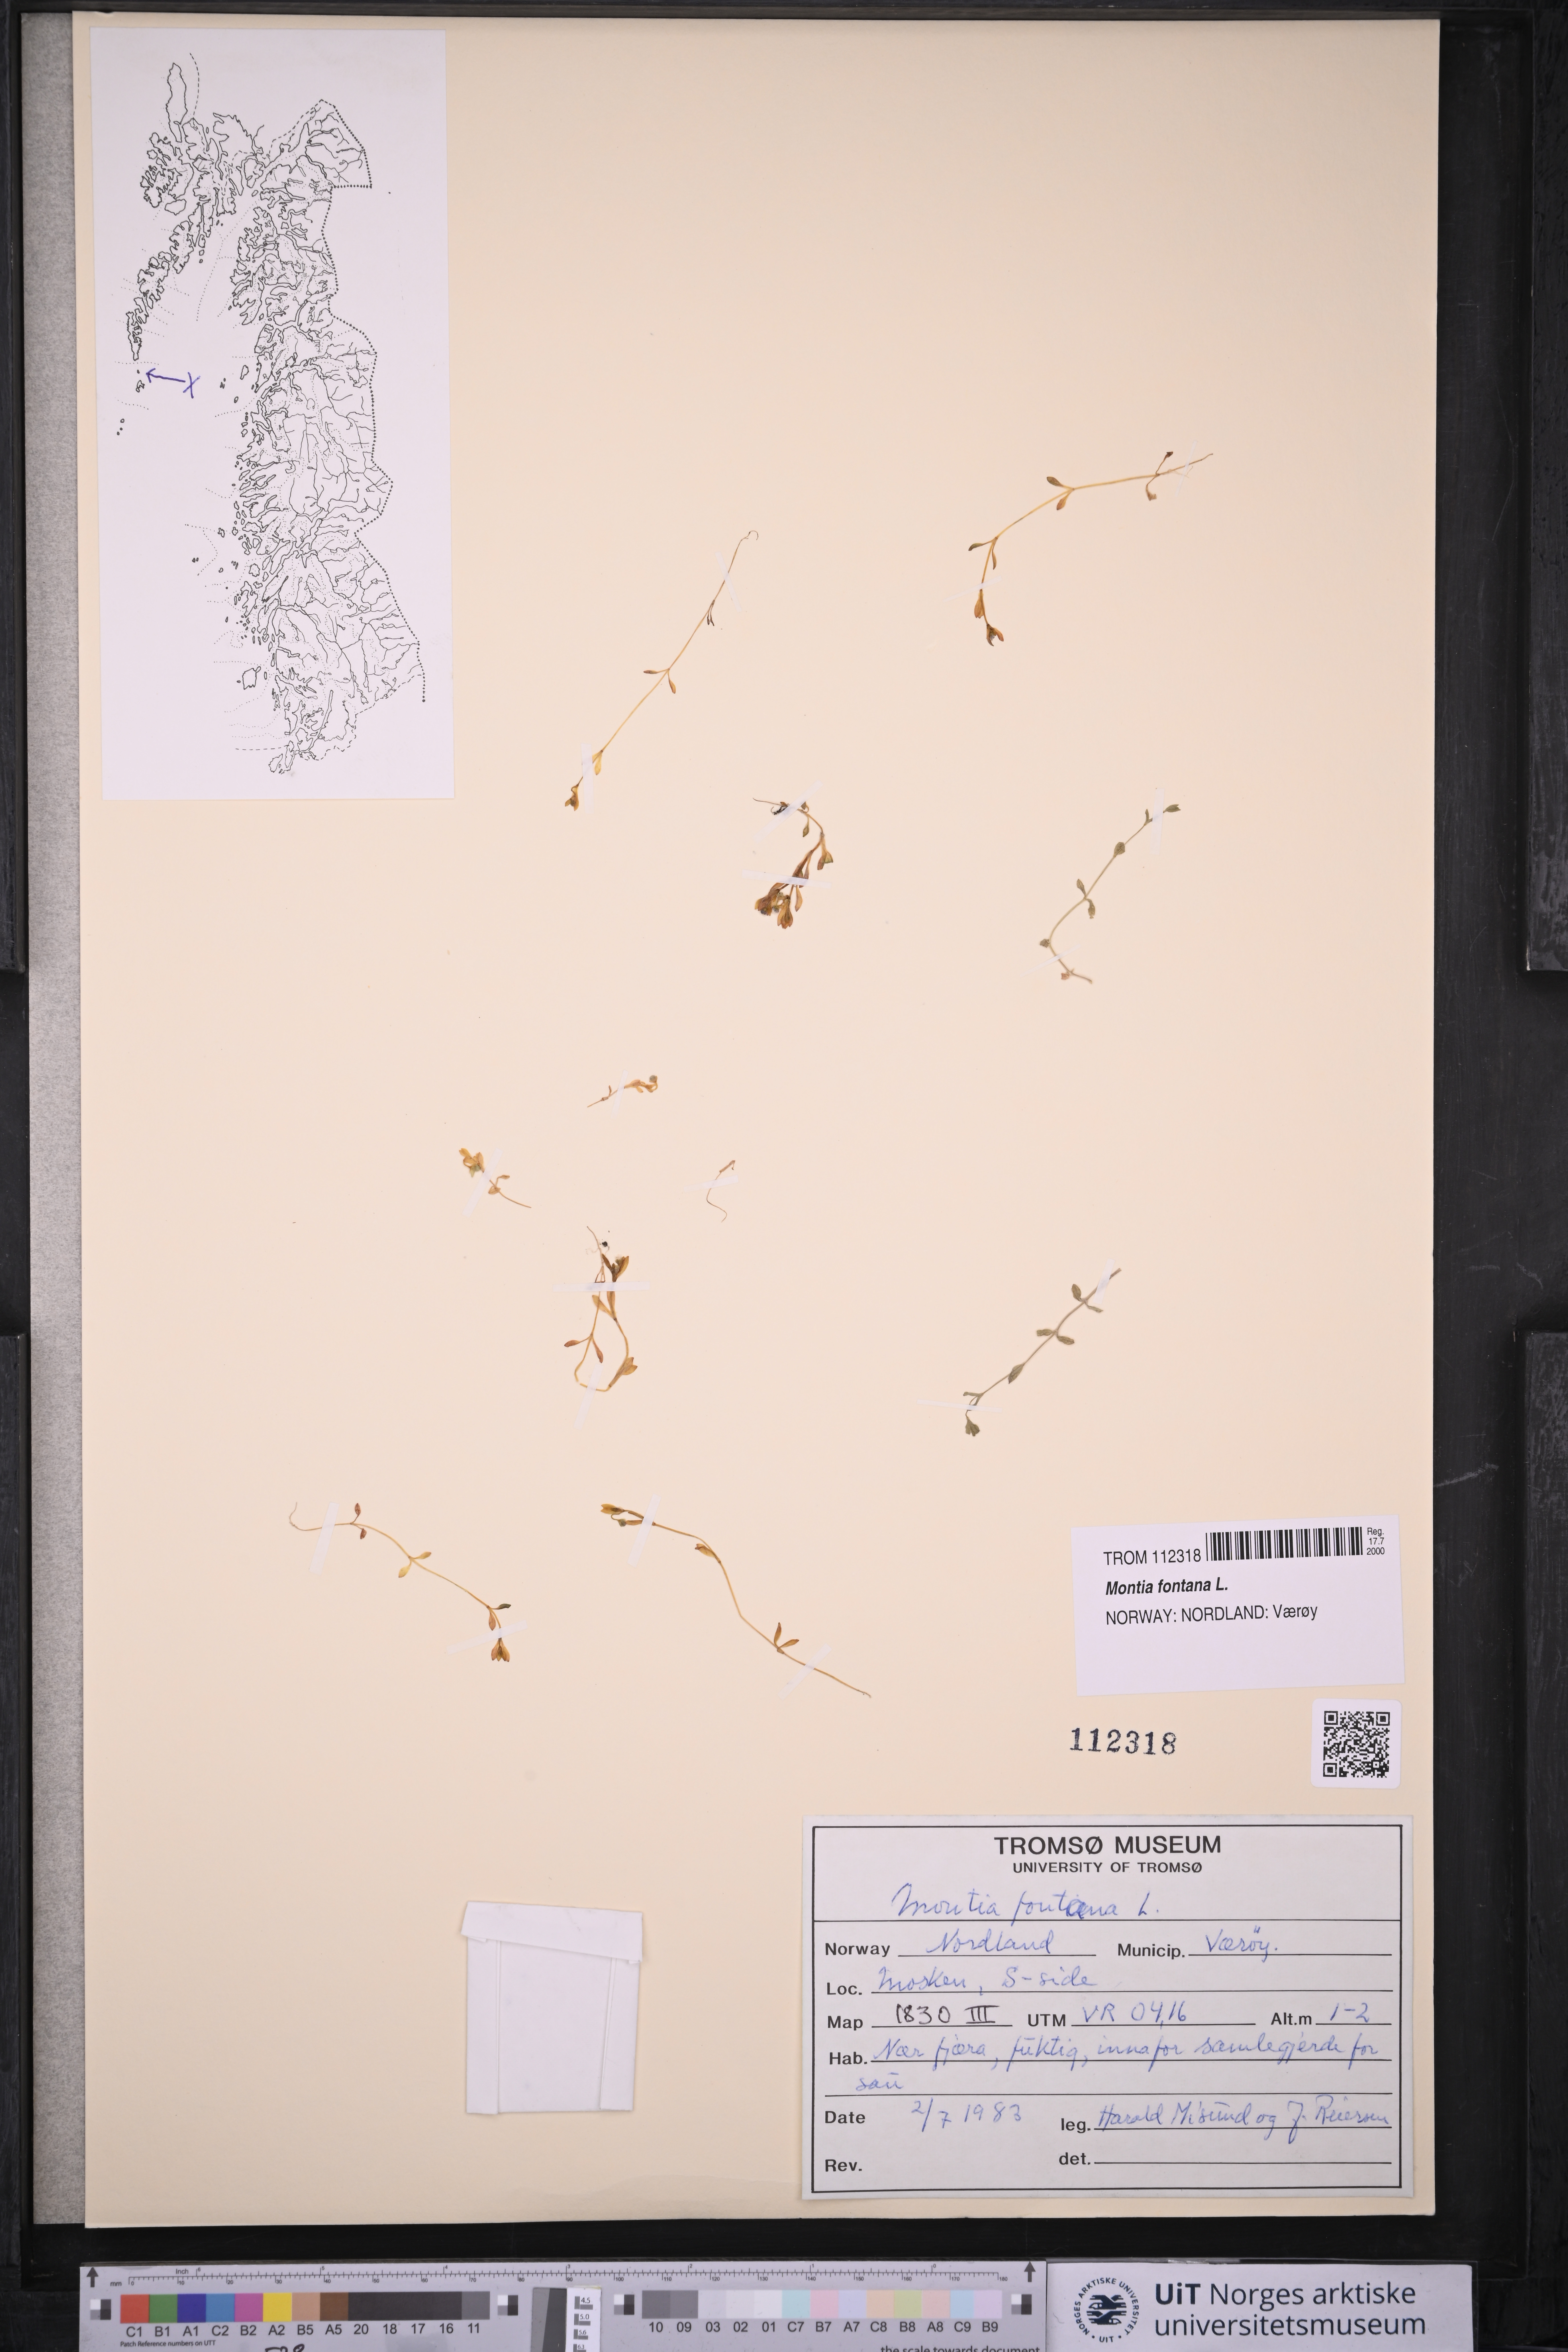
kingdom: Plantae
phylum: Tracheophyta
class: Magnoliopsida
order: Caryophyllales
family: Montiaceae
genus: Montia
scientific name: Montia fontana
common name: Blinks
